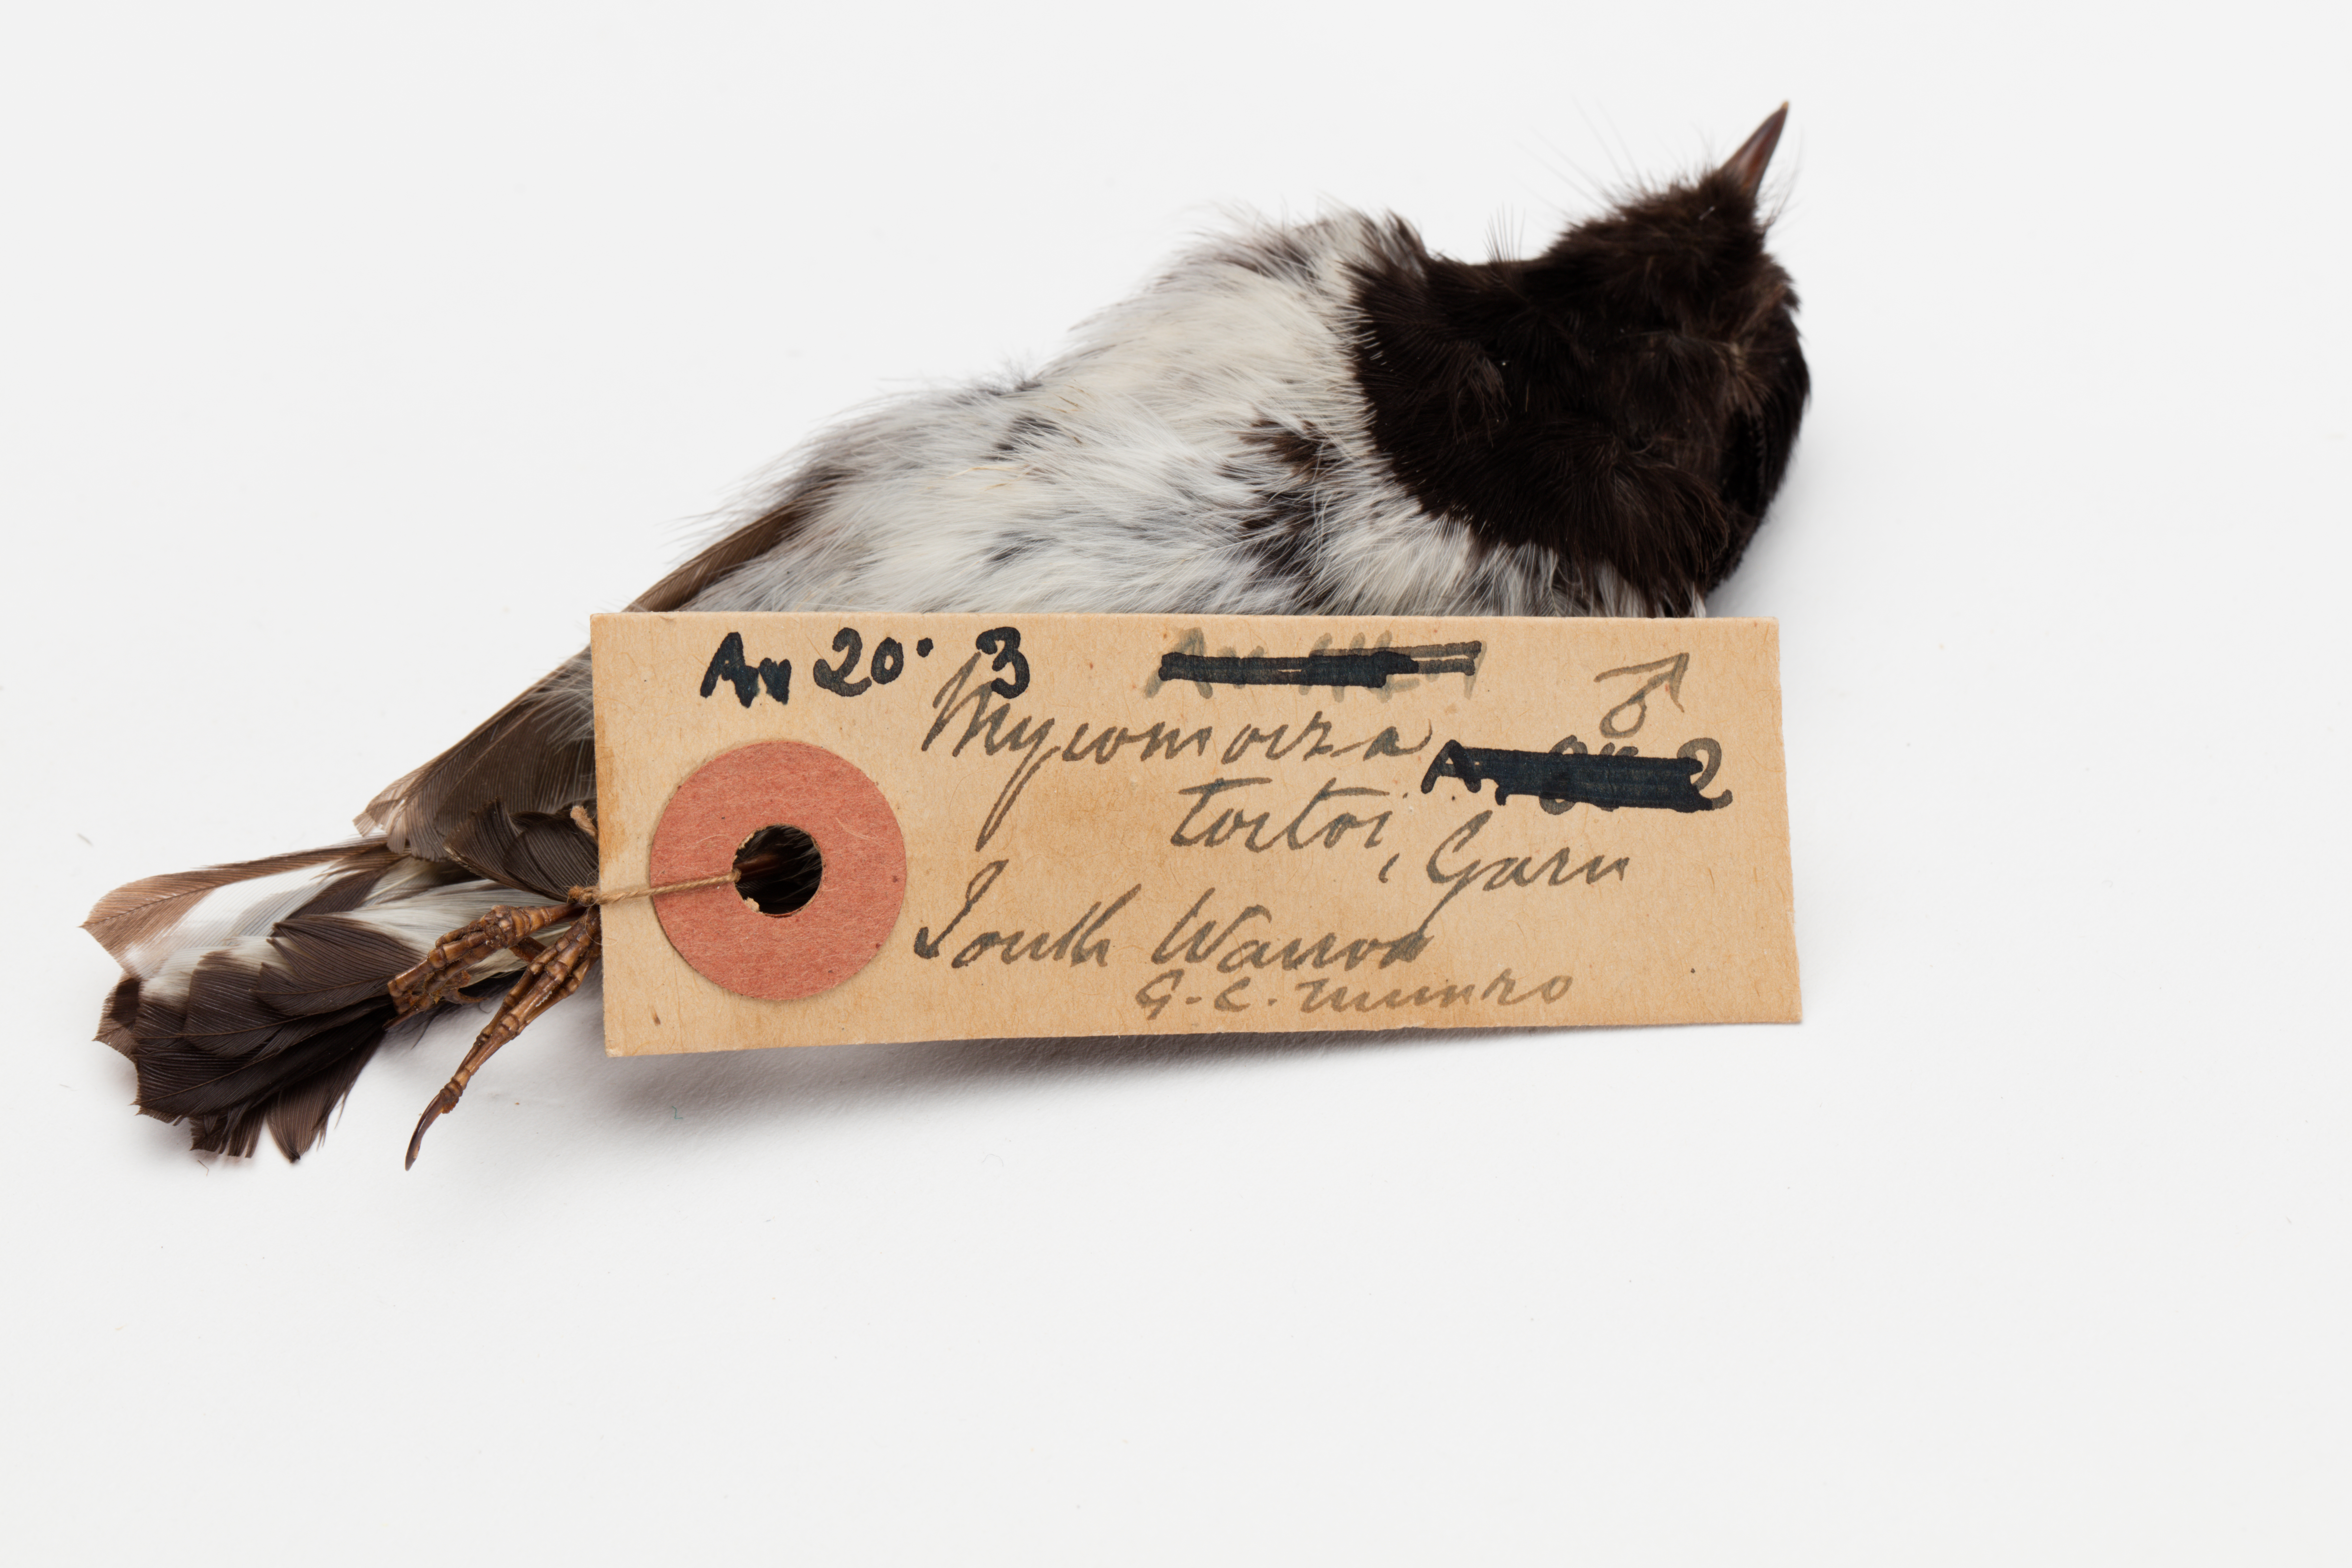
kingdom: Animalia
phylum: Chordata
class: Aves
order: Passeriformes
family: Petroicidae
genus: Petroica
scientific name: Petroica macrocephala
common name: Tomtit
